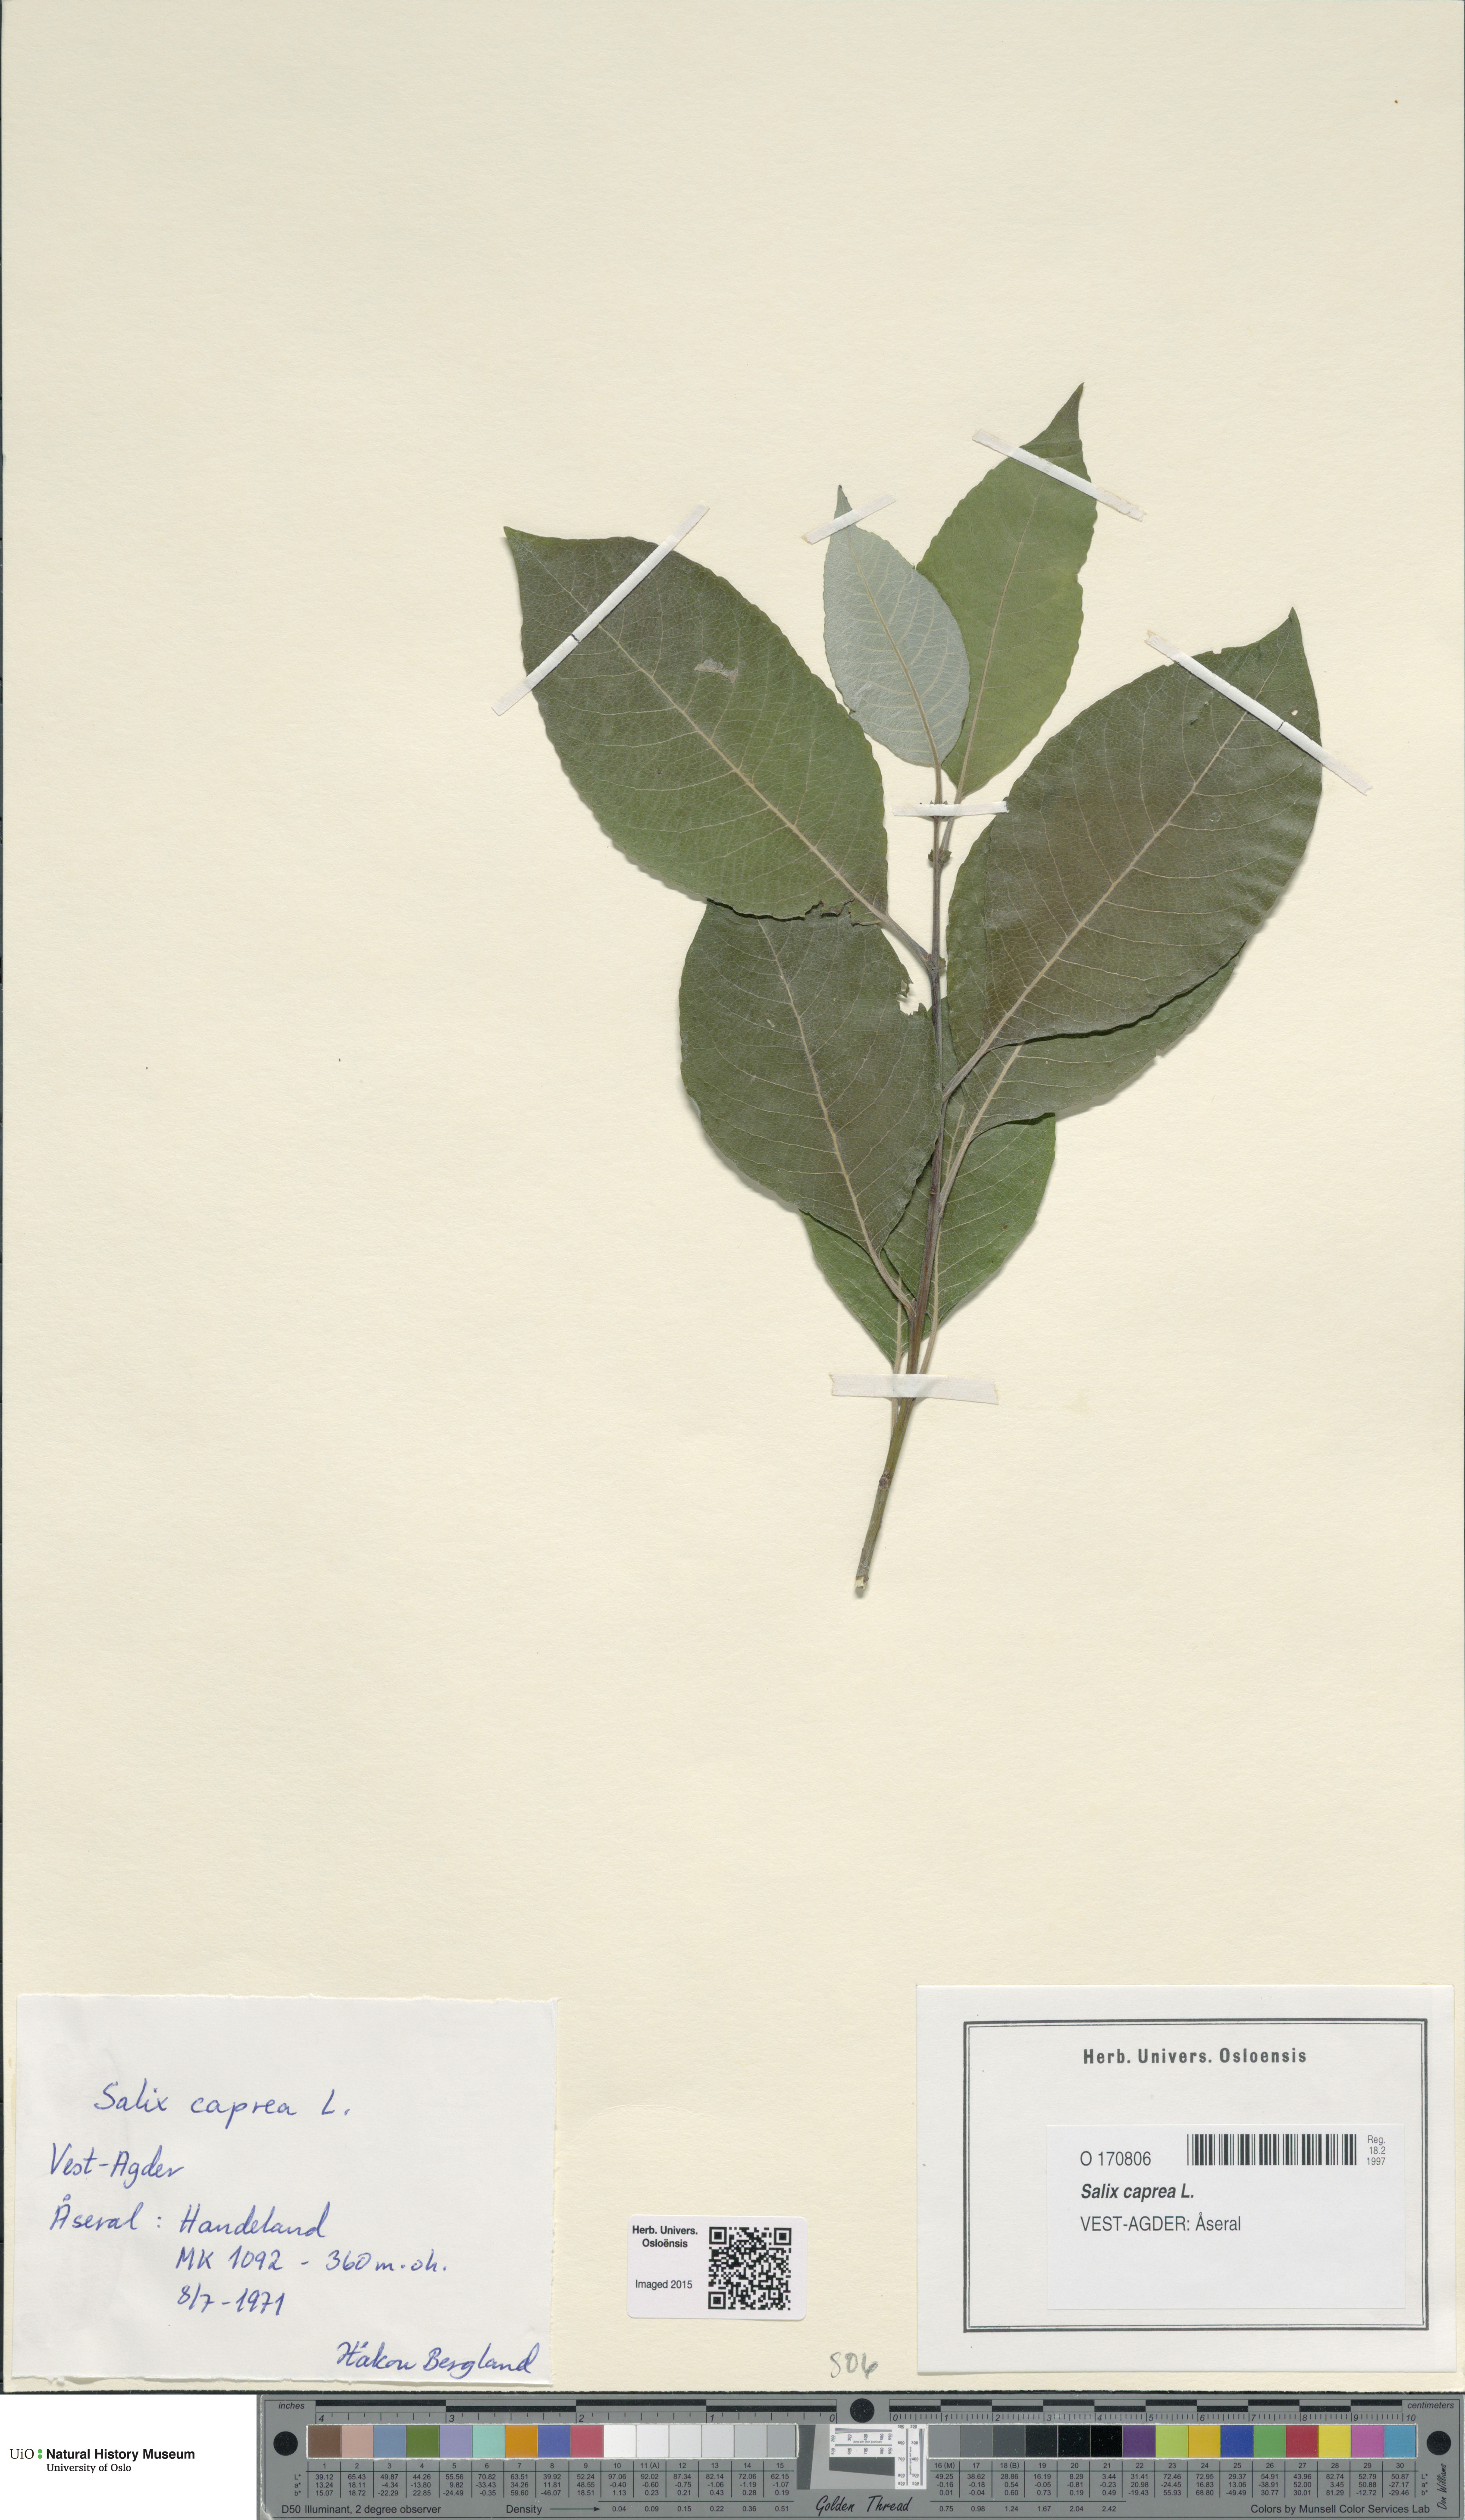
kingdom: Plantae
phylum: Tracheophyta
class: Magnoliopsida
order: Malpighiales
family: Salicaceae
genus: Salix
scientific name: Salix caprea
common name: Goat willow
